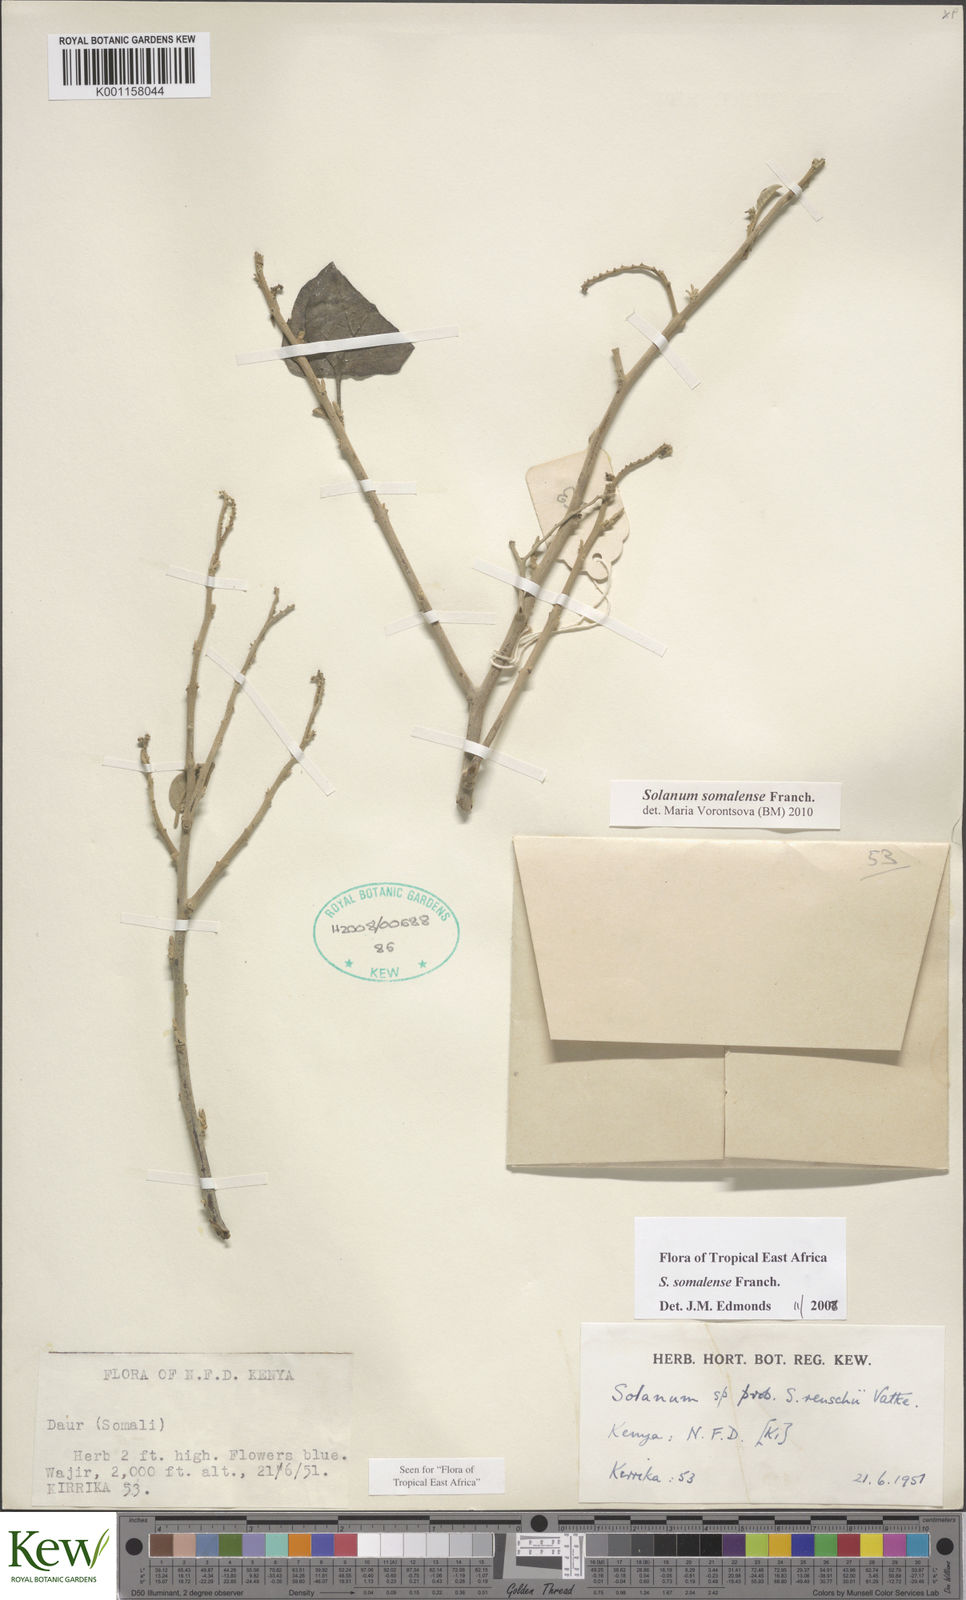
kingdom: Plantae
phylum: Tracheophyta
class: Magnoliopsida
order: Solanales
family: Solanaceae
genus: Solanum
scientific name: Solanum somalense
